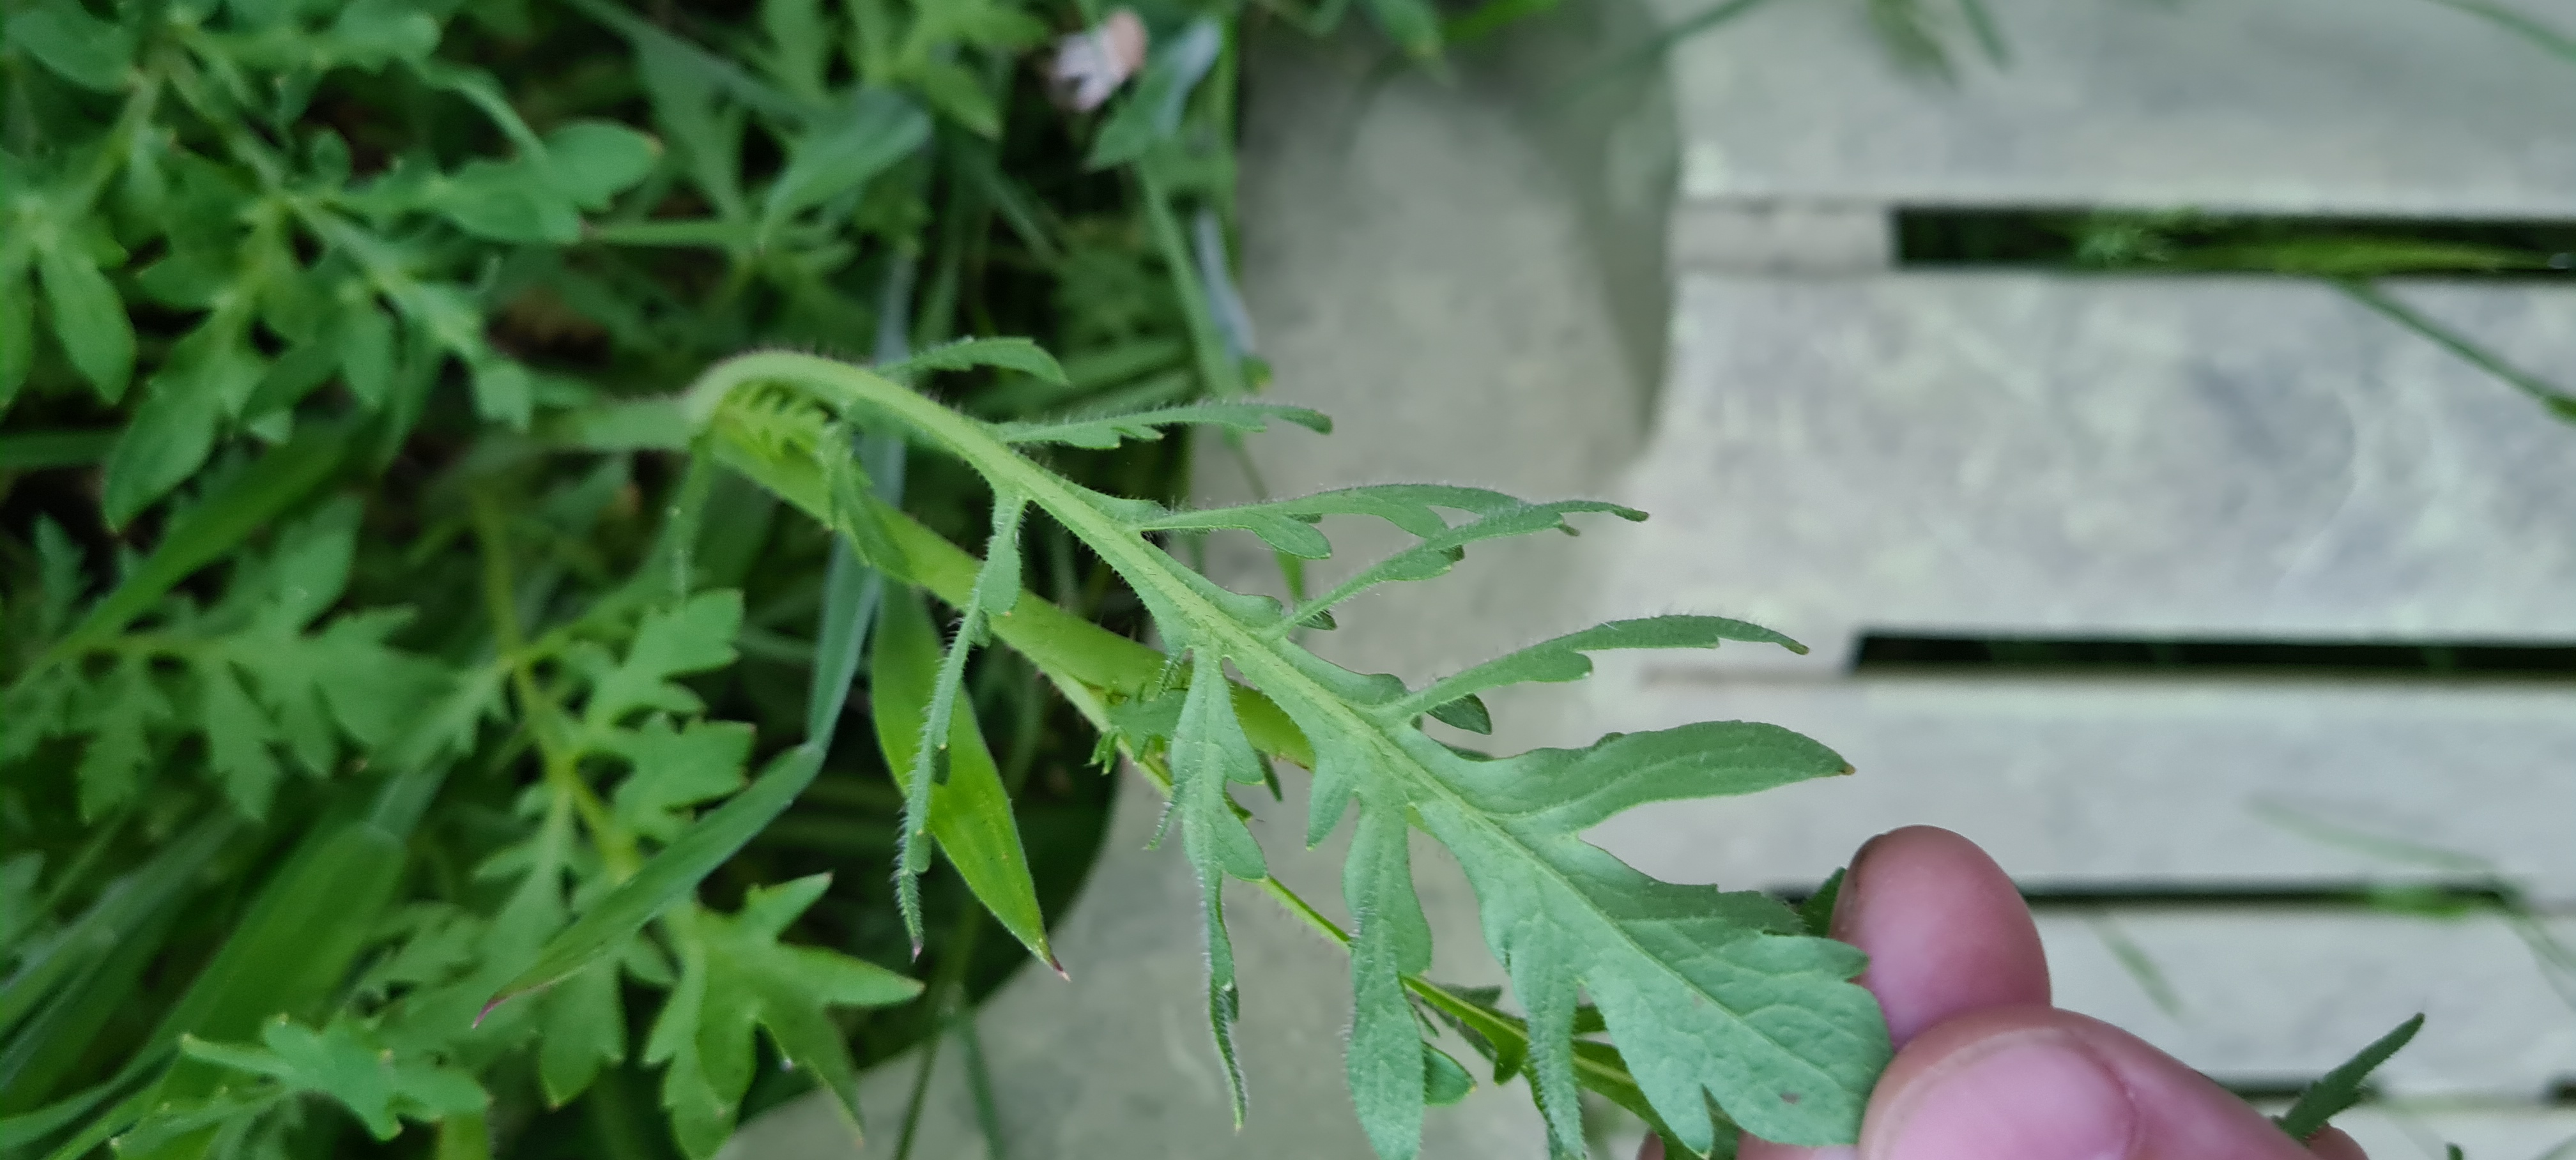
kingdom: Plantae
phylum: Tracheophyta
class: Magnoliopsida
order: Ranunculales
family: Papaveraceae
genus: Papaver
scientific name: Papaver
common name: Valmueslægten
